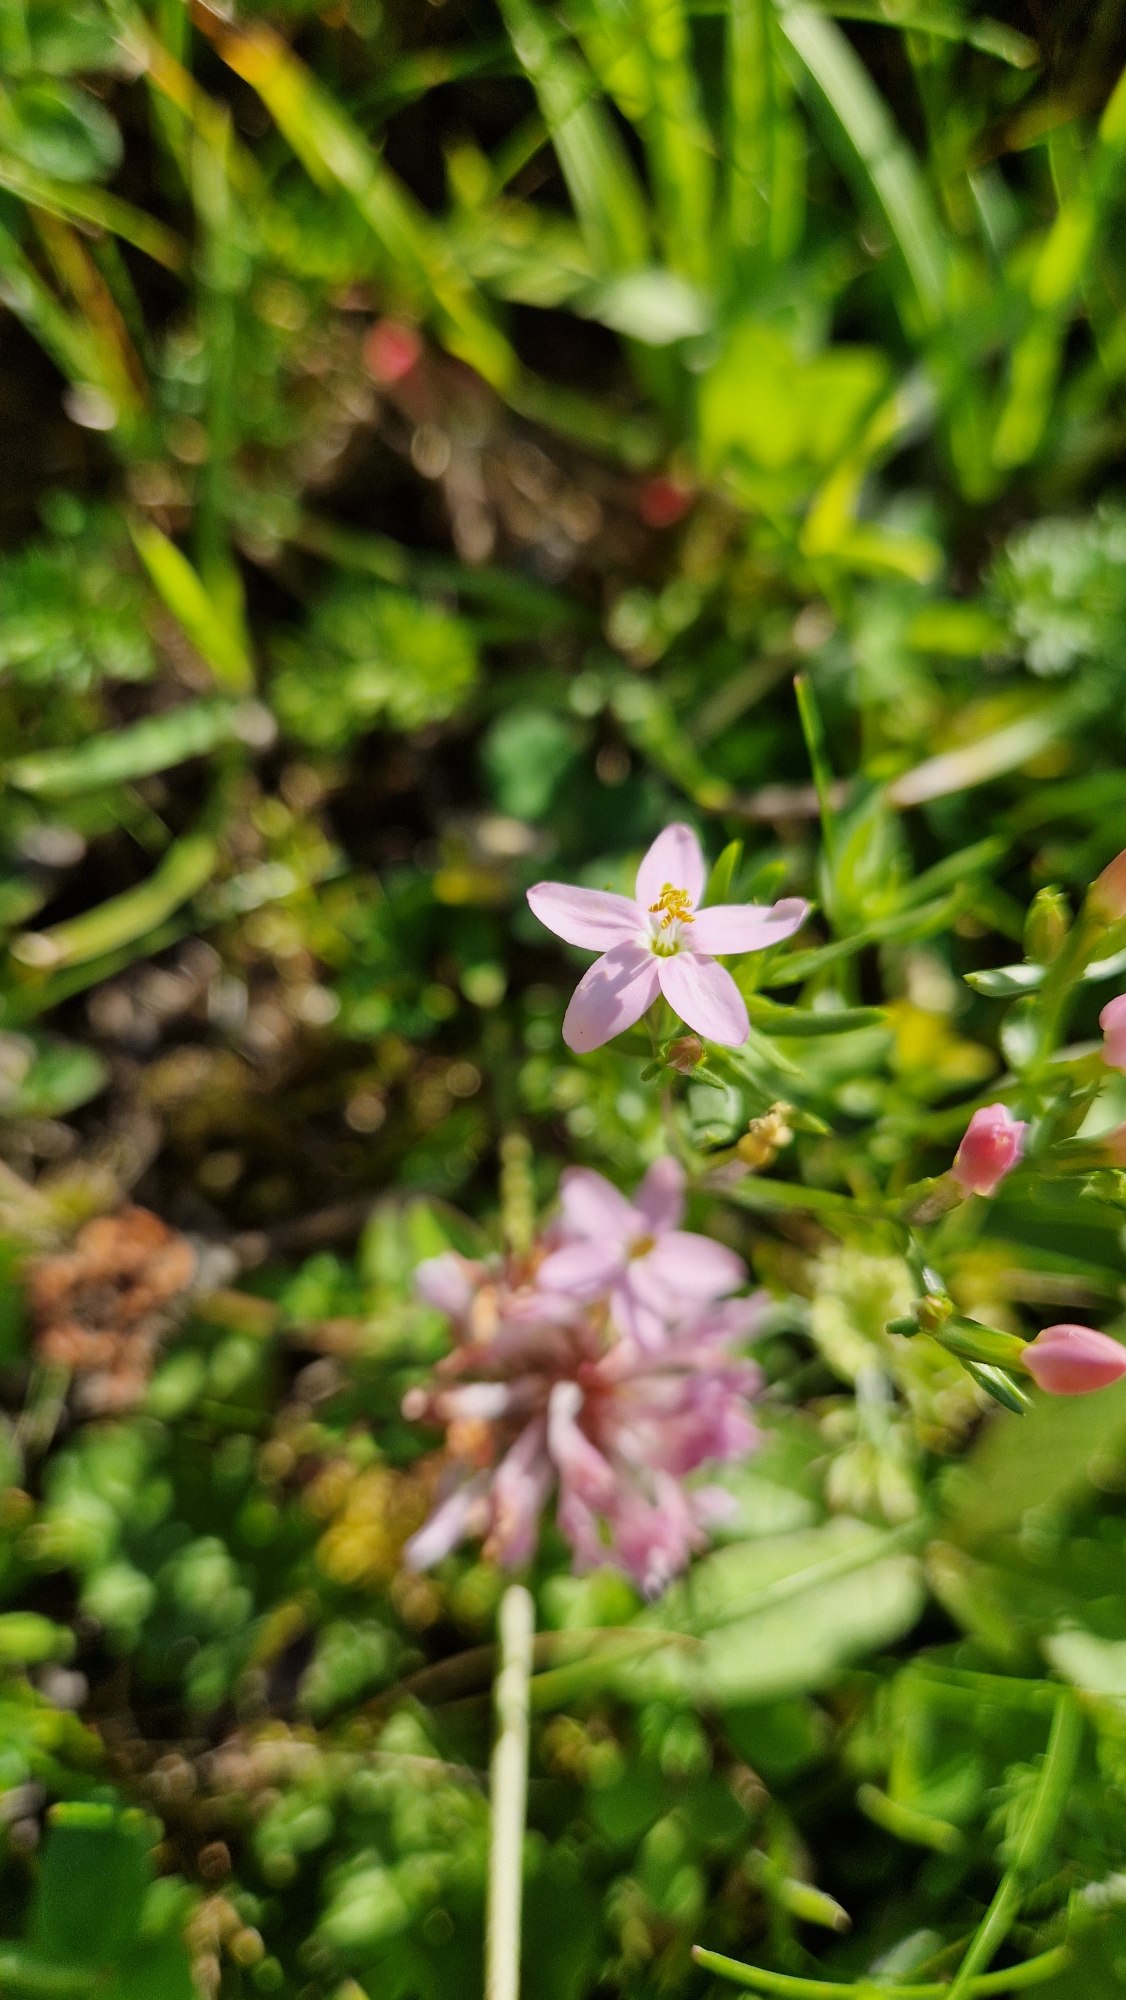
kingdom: Plantae
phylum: Tracheophyta
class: Magnoliopsida
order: Gentianales
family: Gentianaceae
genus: Centaurium
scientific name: Centaurium erythraea
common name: Mark-tusindgylden
